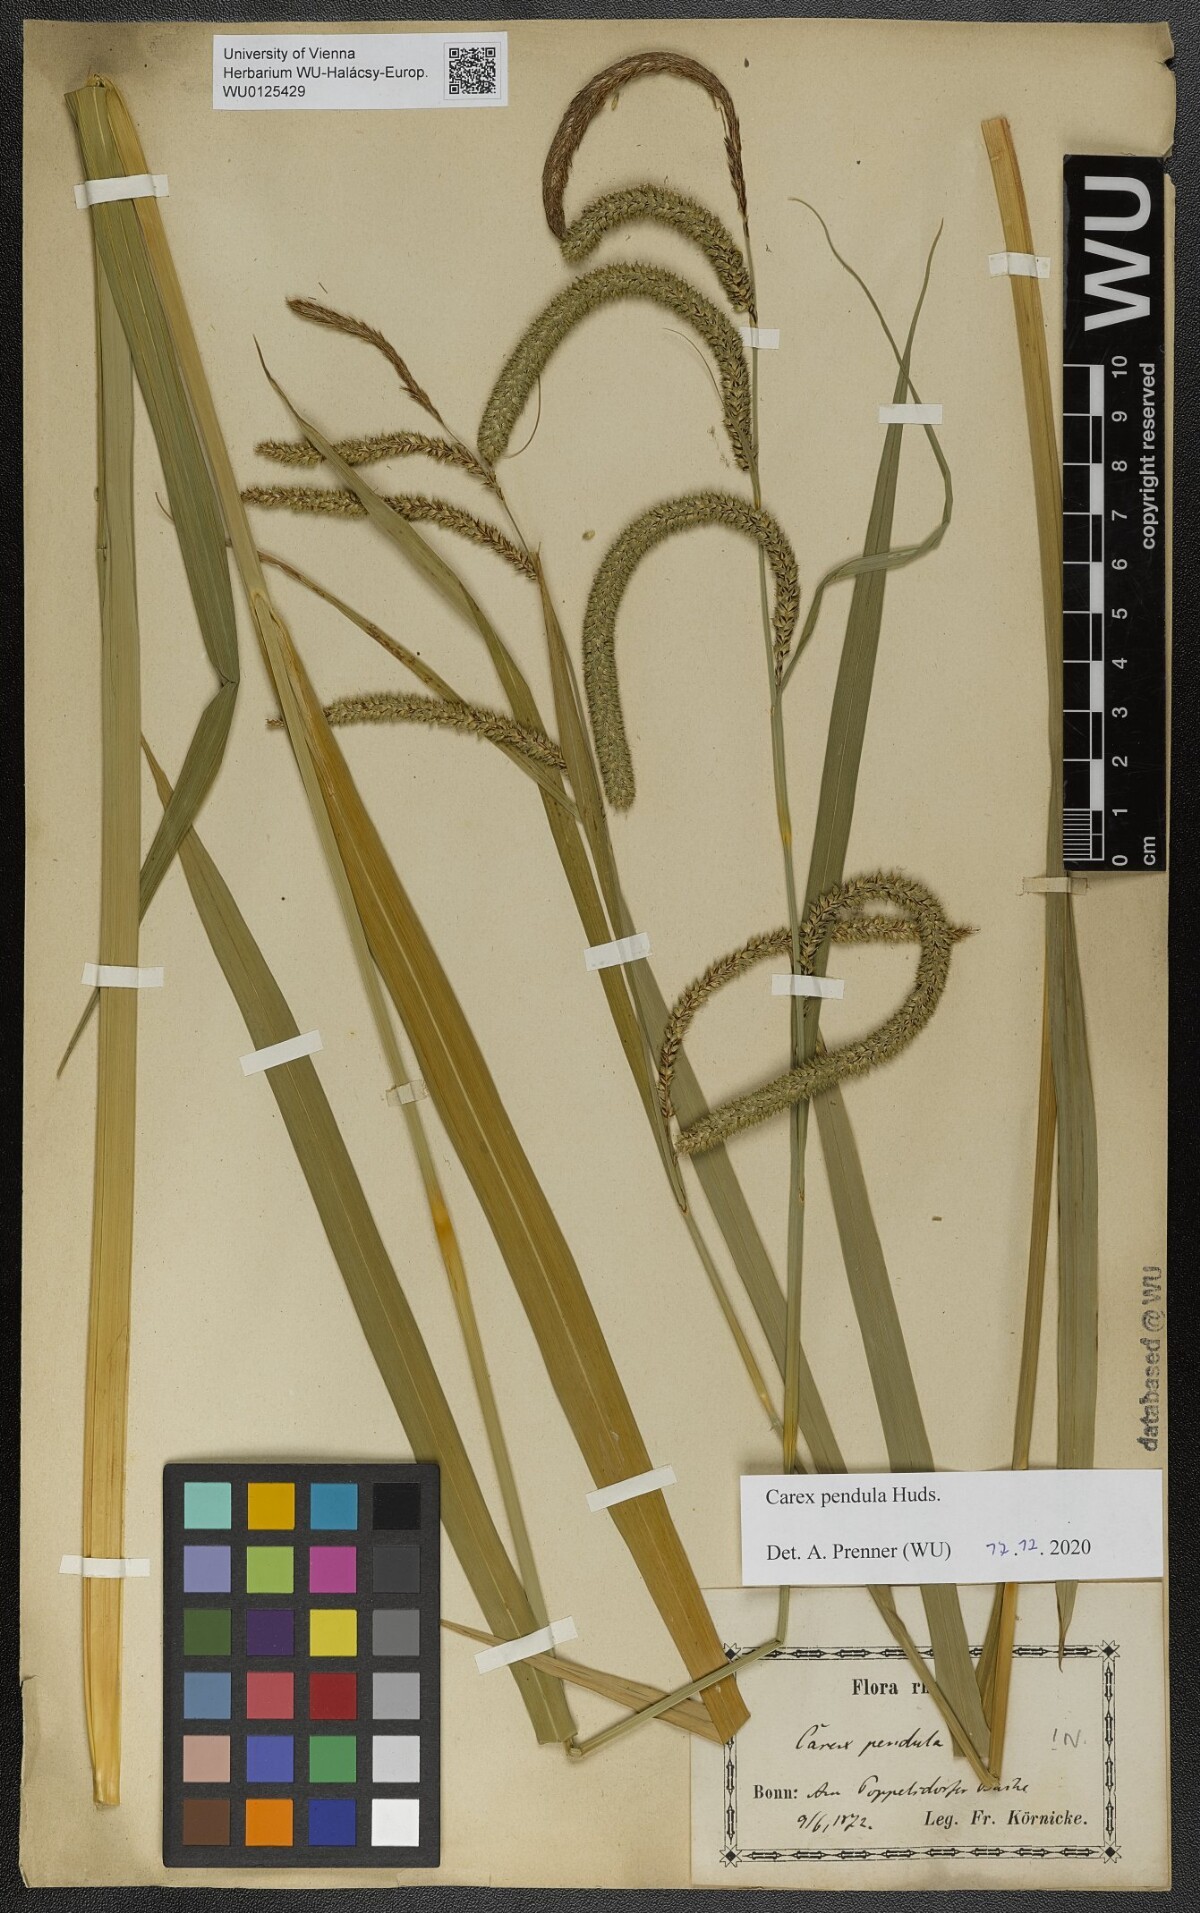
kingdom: Plantae
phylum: Tracheophyta
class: Liliopsida
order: Poales
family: Cyperaceae
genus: Carex
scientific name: Carex pendula
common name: Pendulous sedge
